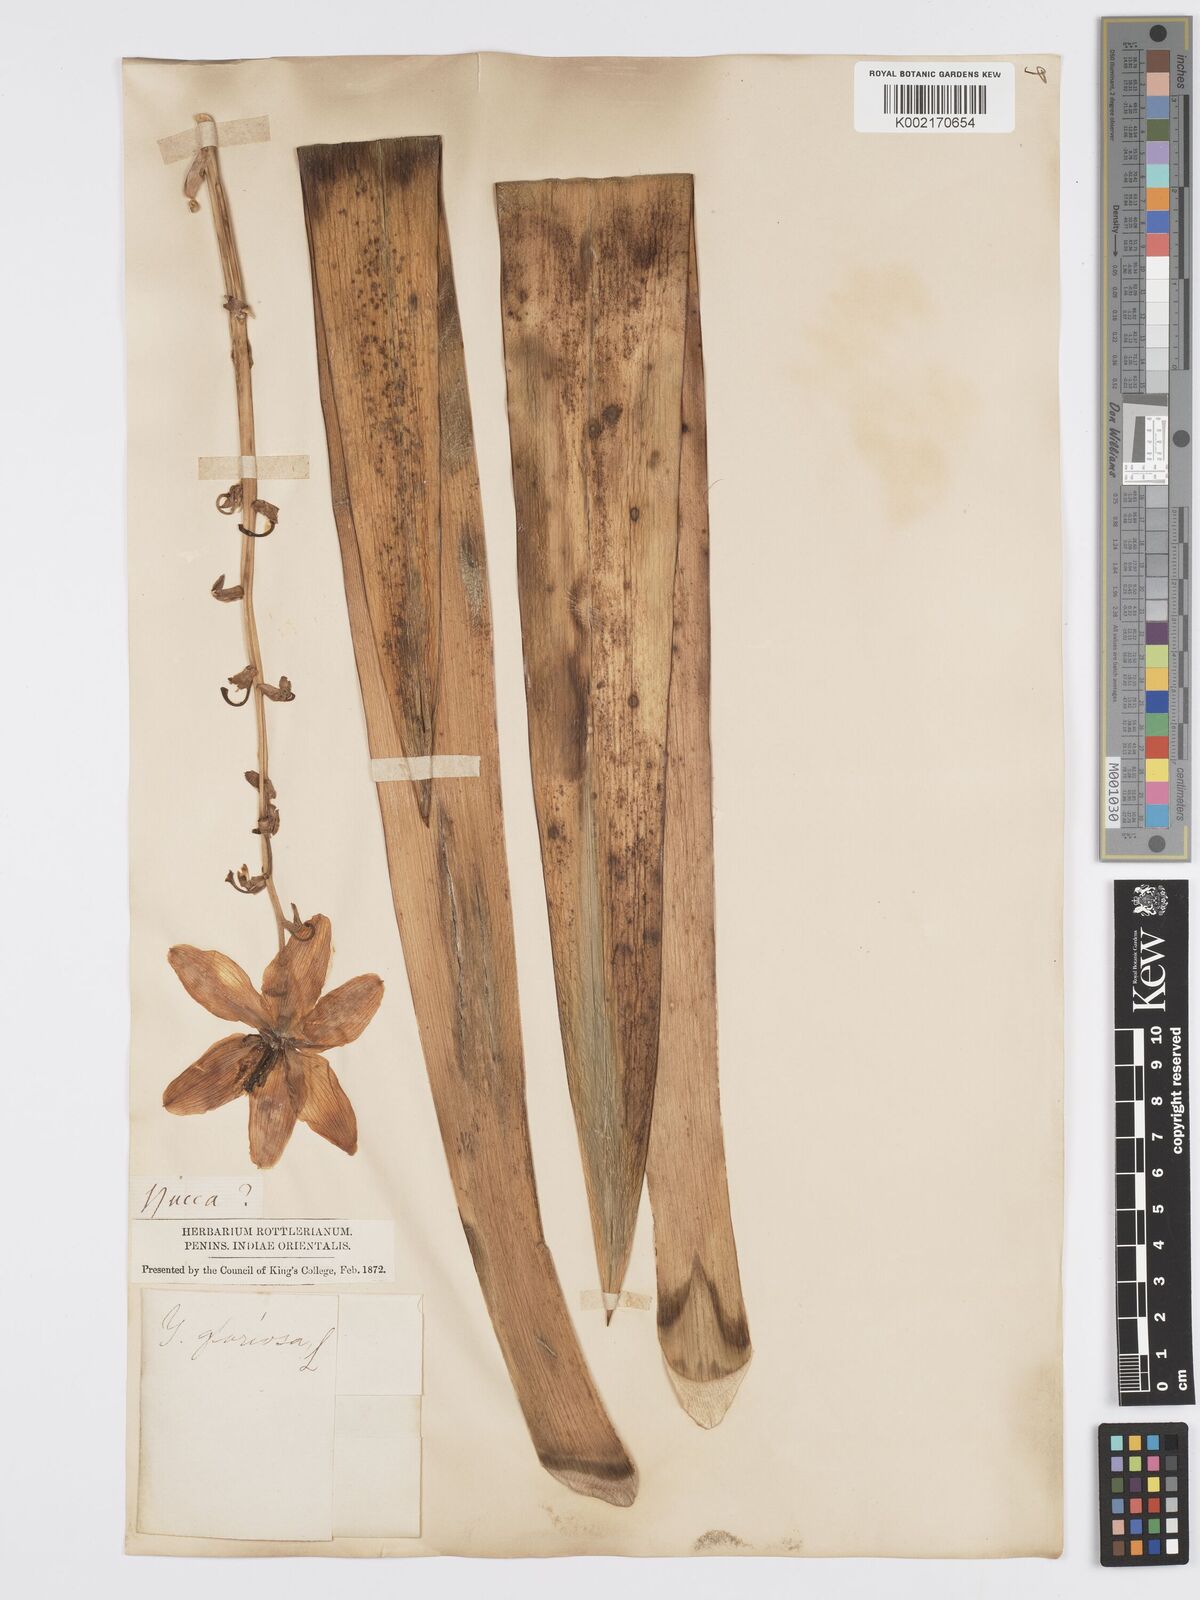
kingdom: Plantae
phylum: Tracheophyta
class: Liliopsida
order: Asparagales
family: Asparagaceae
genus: Yucca
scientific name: Yucca gloriosa
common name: Spanish-dagger
